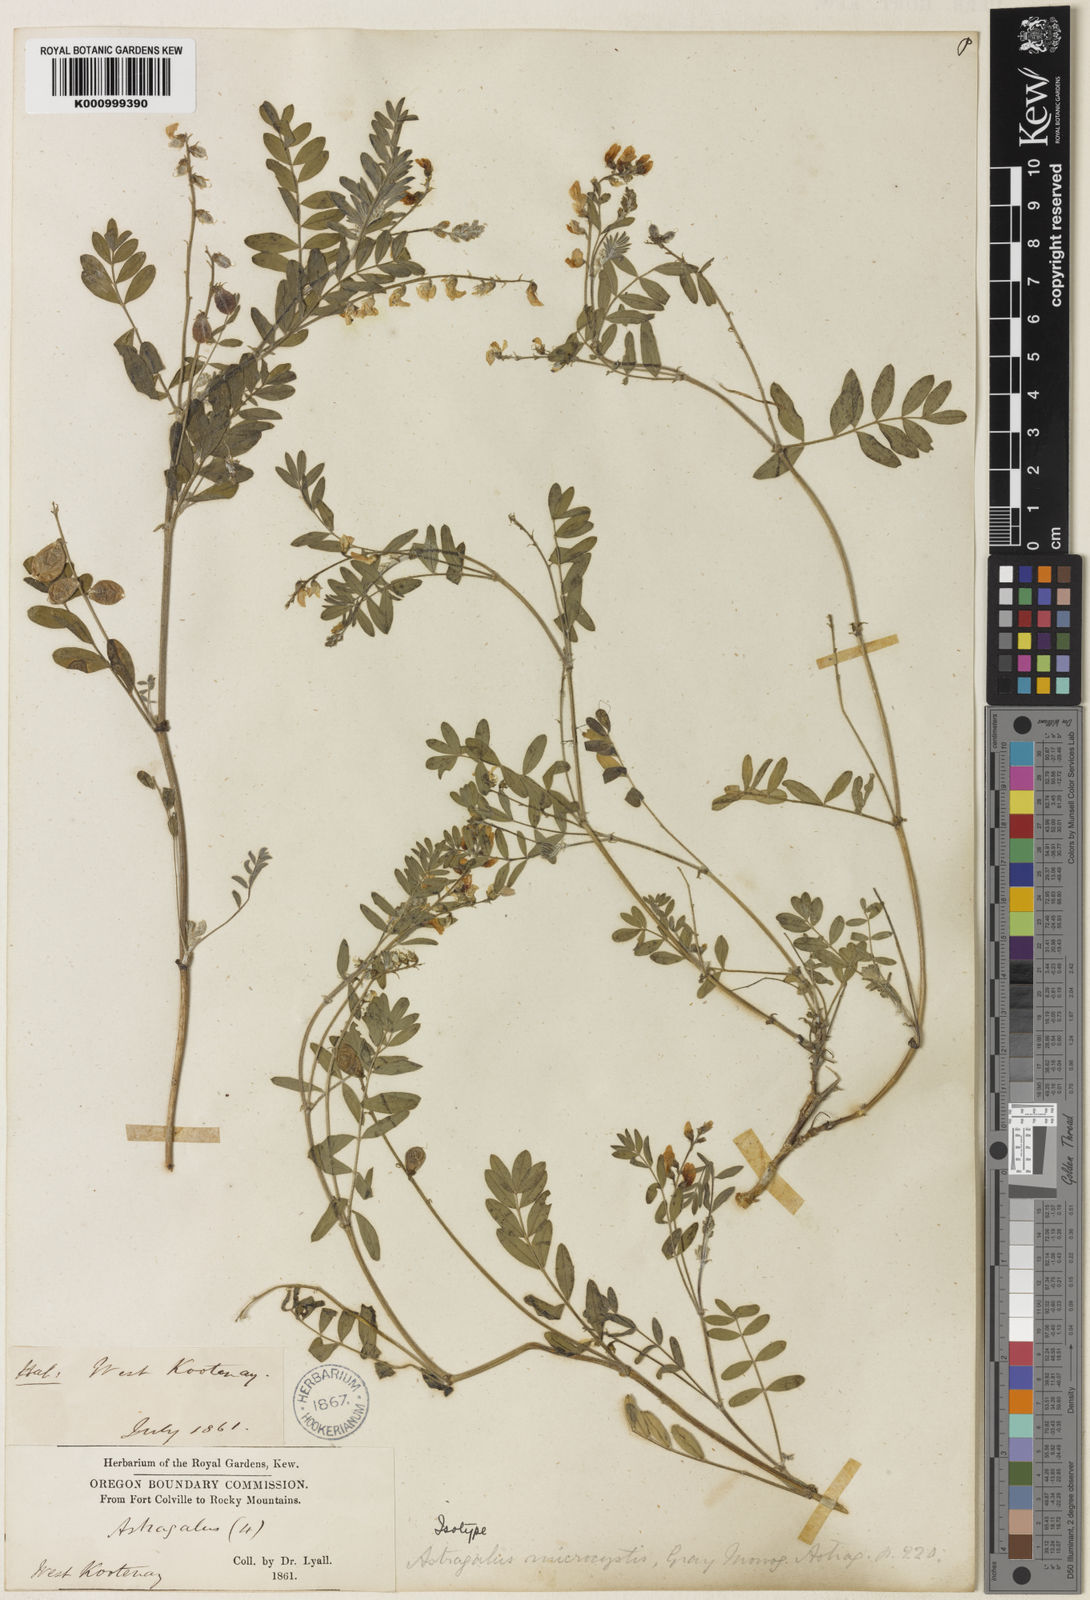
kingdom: Plantae
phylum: Tracheophyta
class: Magnoliopsida
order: Fabales
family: Fabaceae
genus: Astragalus
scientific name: Astragalus microcystis
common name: Dwarf milk-vetch
